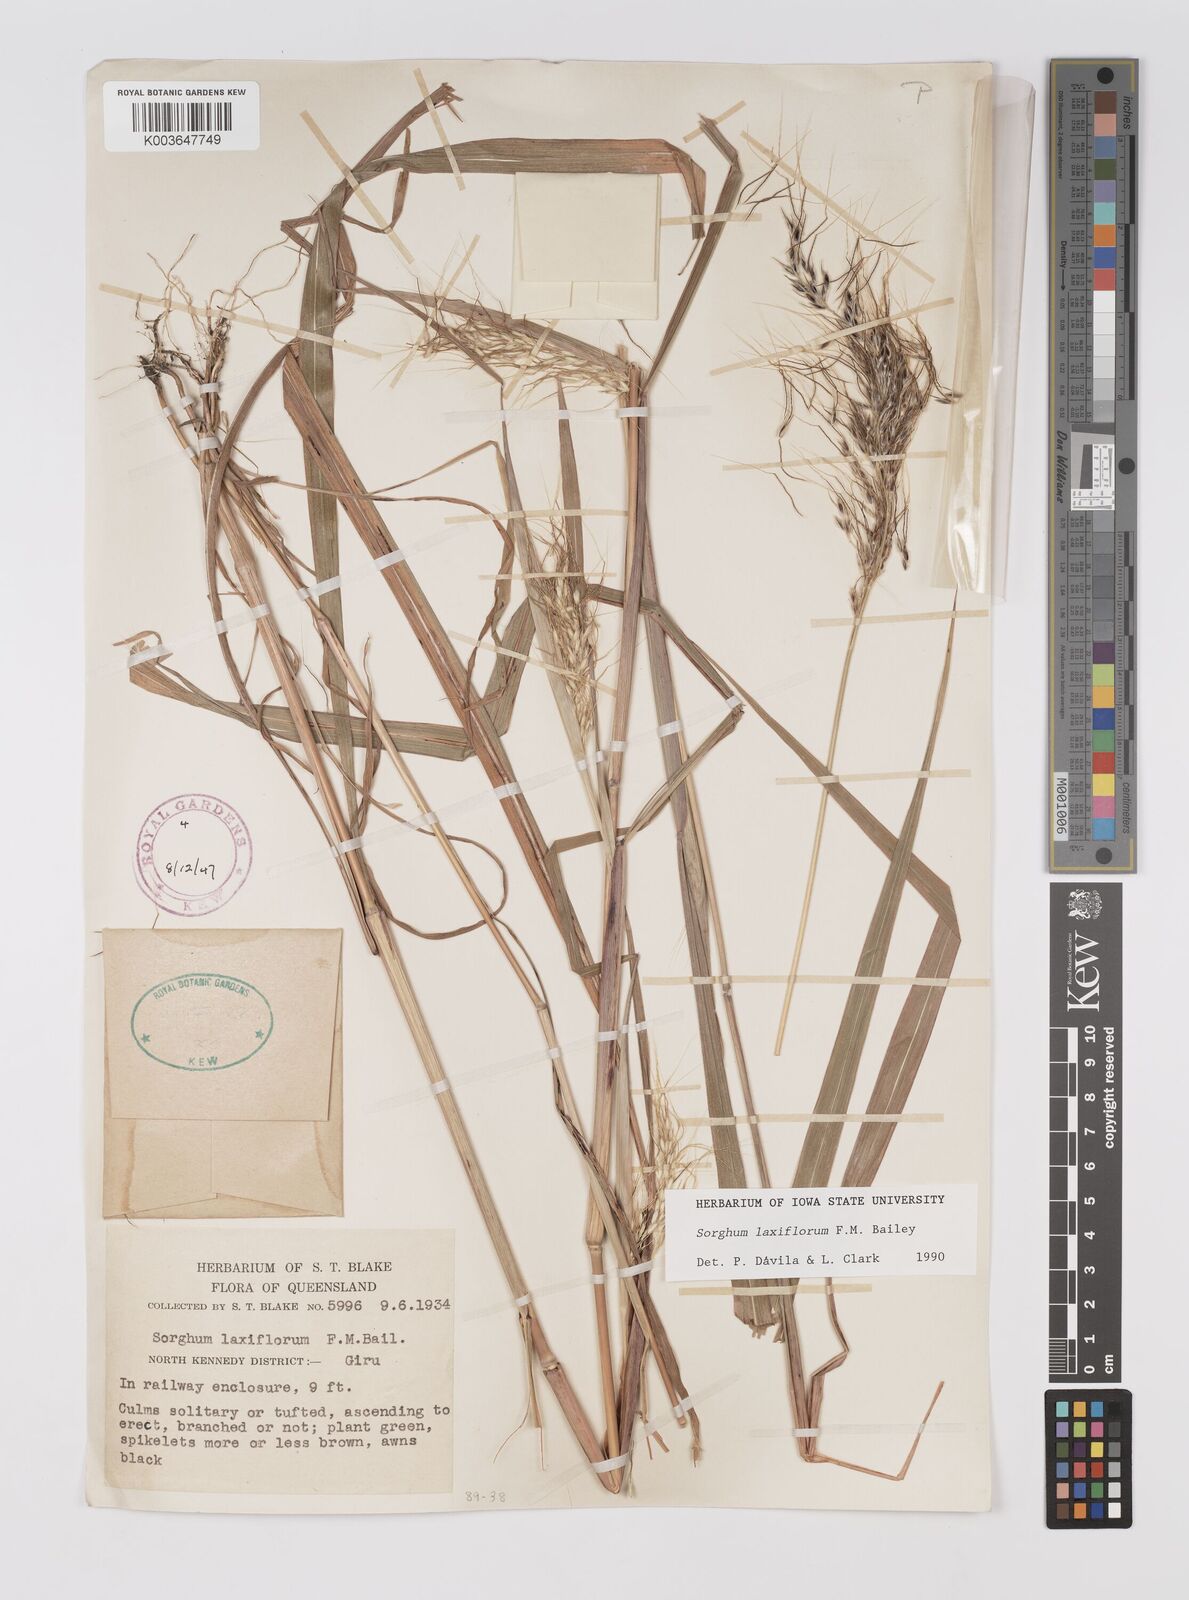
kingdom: Plantae
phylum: Tracheophyta
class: Liliopsida
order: Poales
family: Poaceae
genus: Sorghum
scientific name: Sorghum laxiflorum
